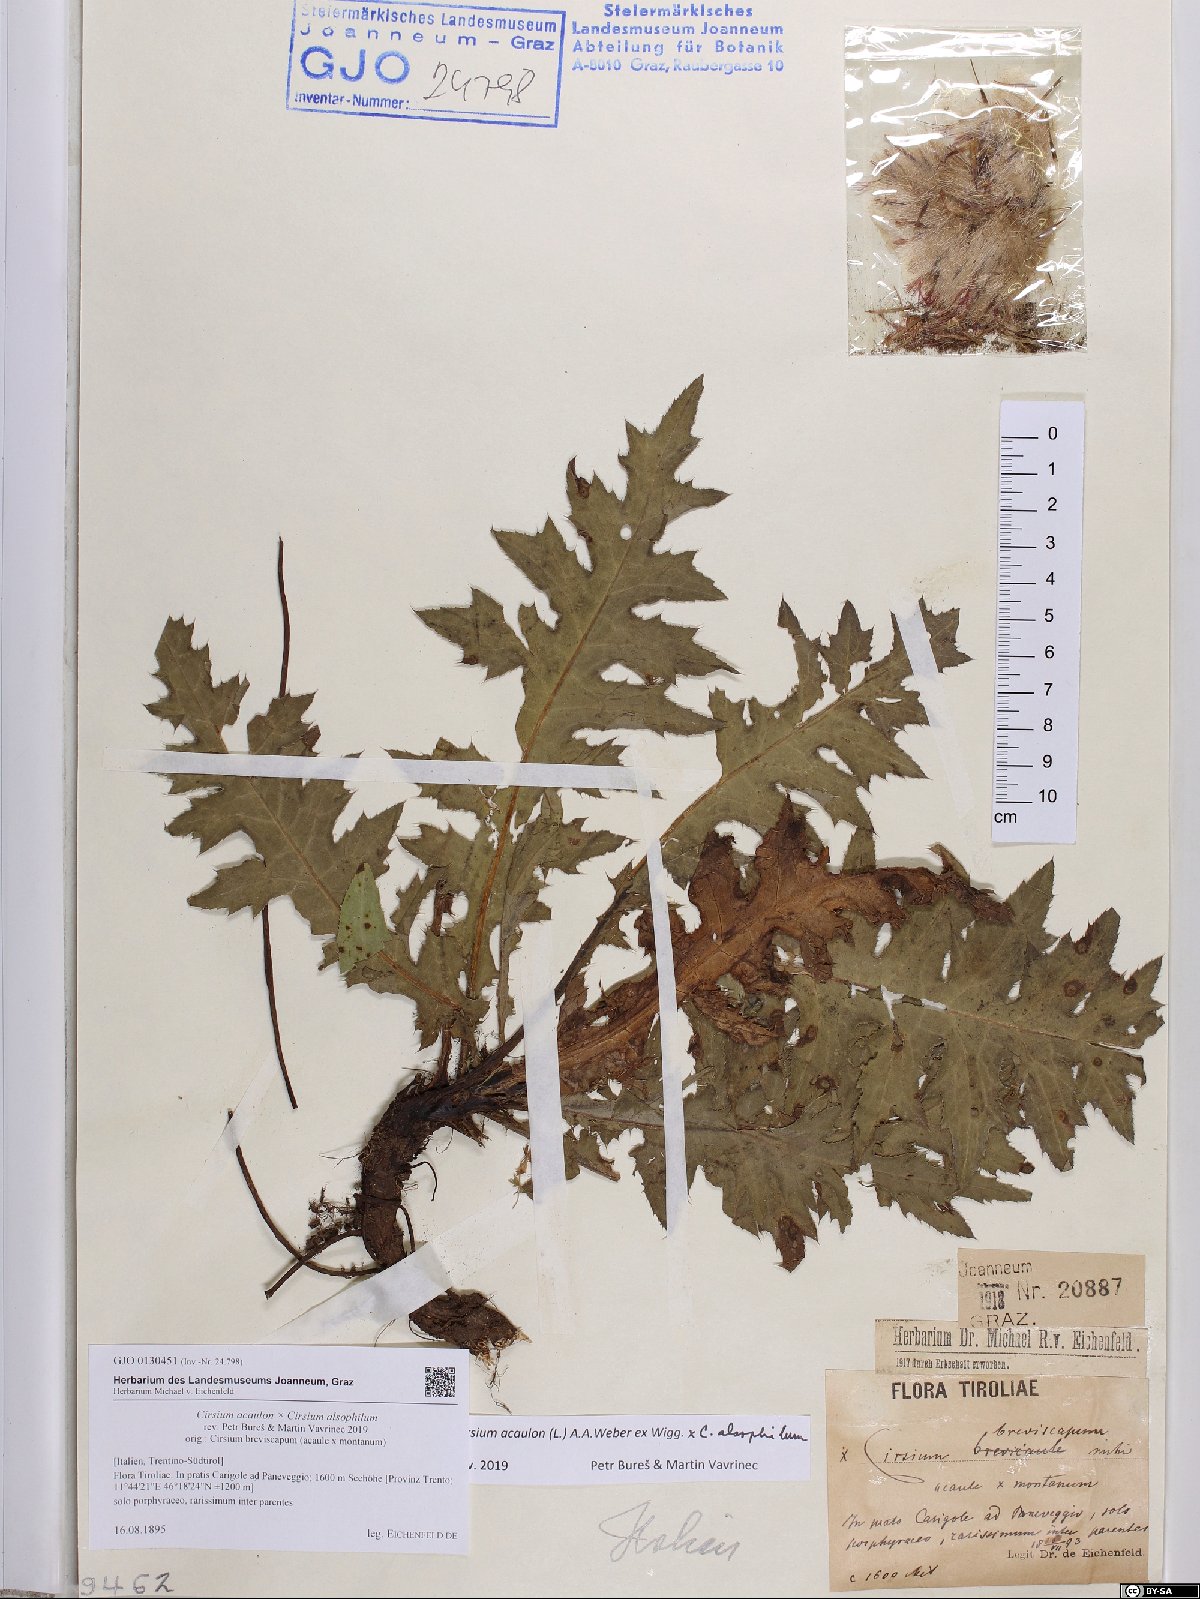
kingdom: Plantae
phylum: Tracheophyta
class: Magnoliopsida
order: Asterales
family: Asteraceae
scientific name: Asteraceae
